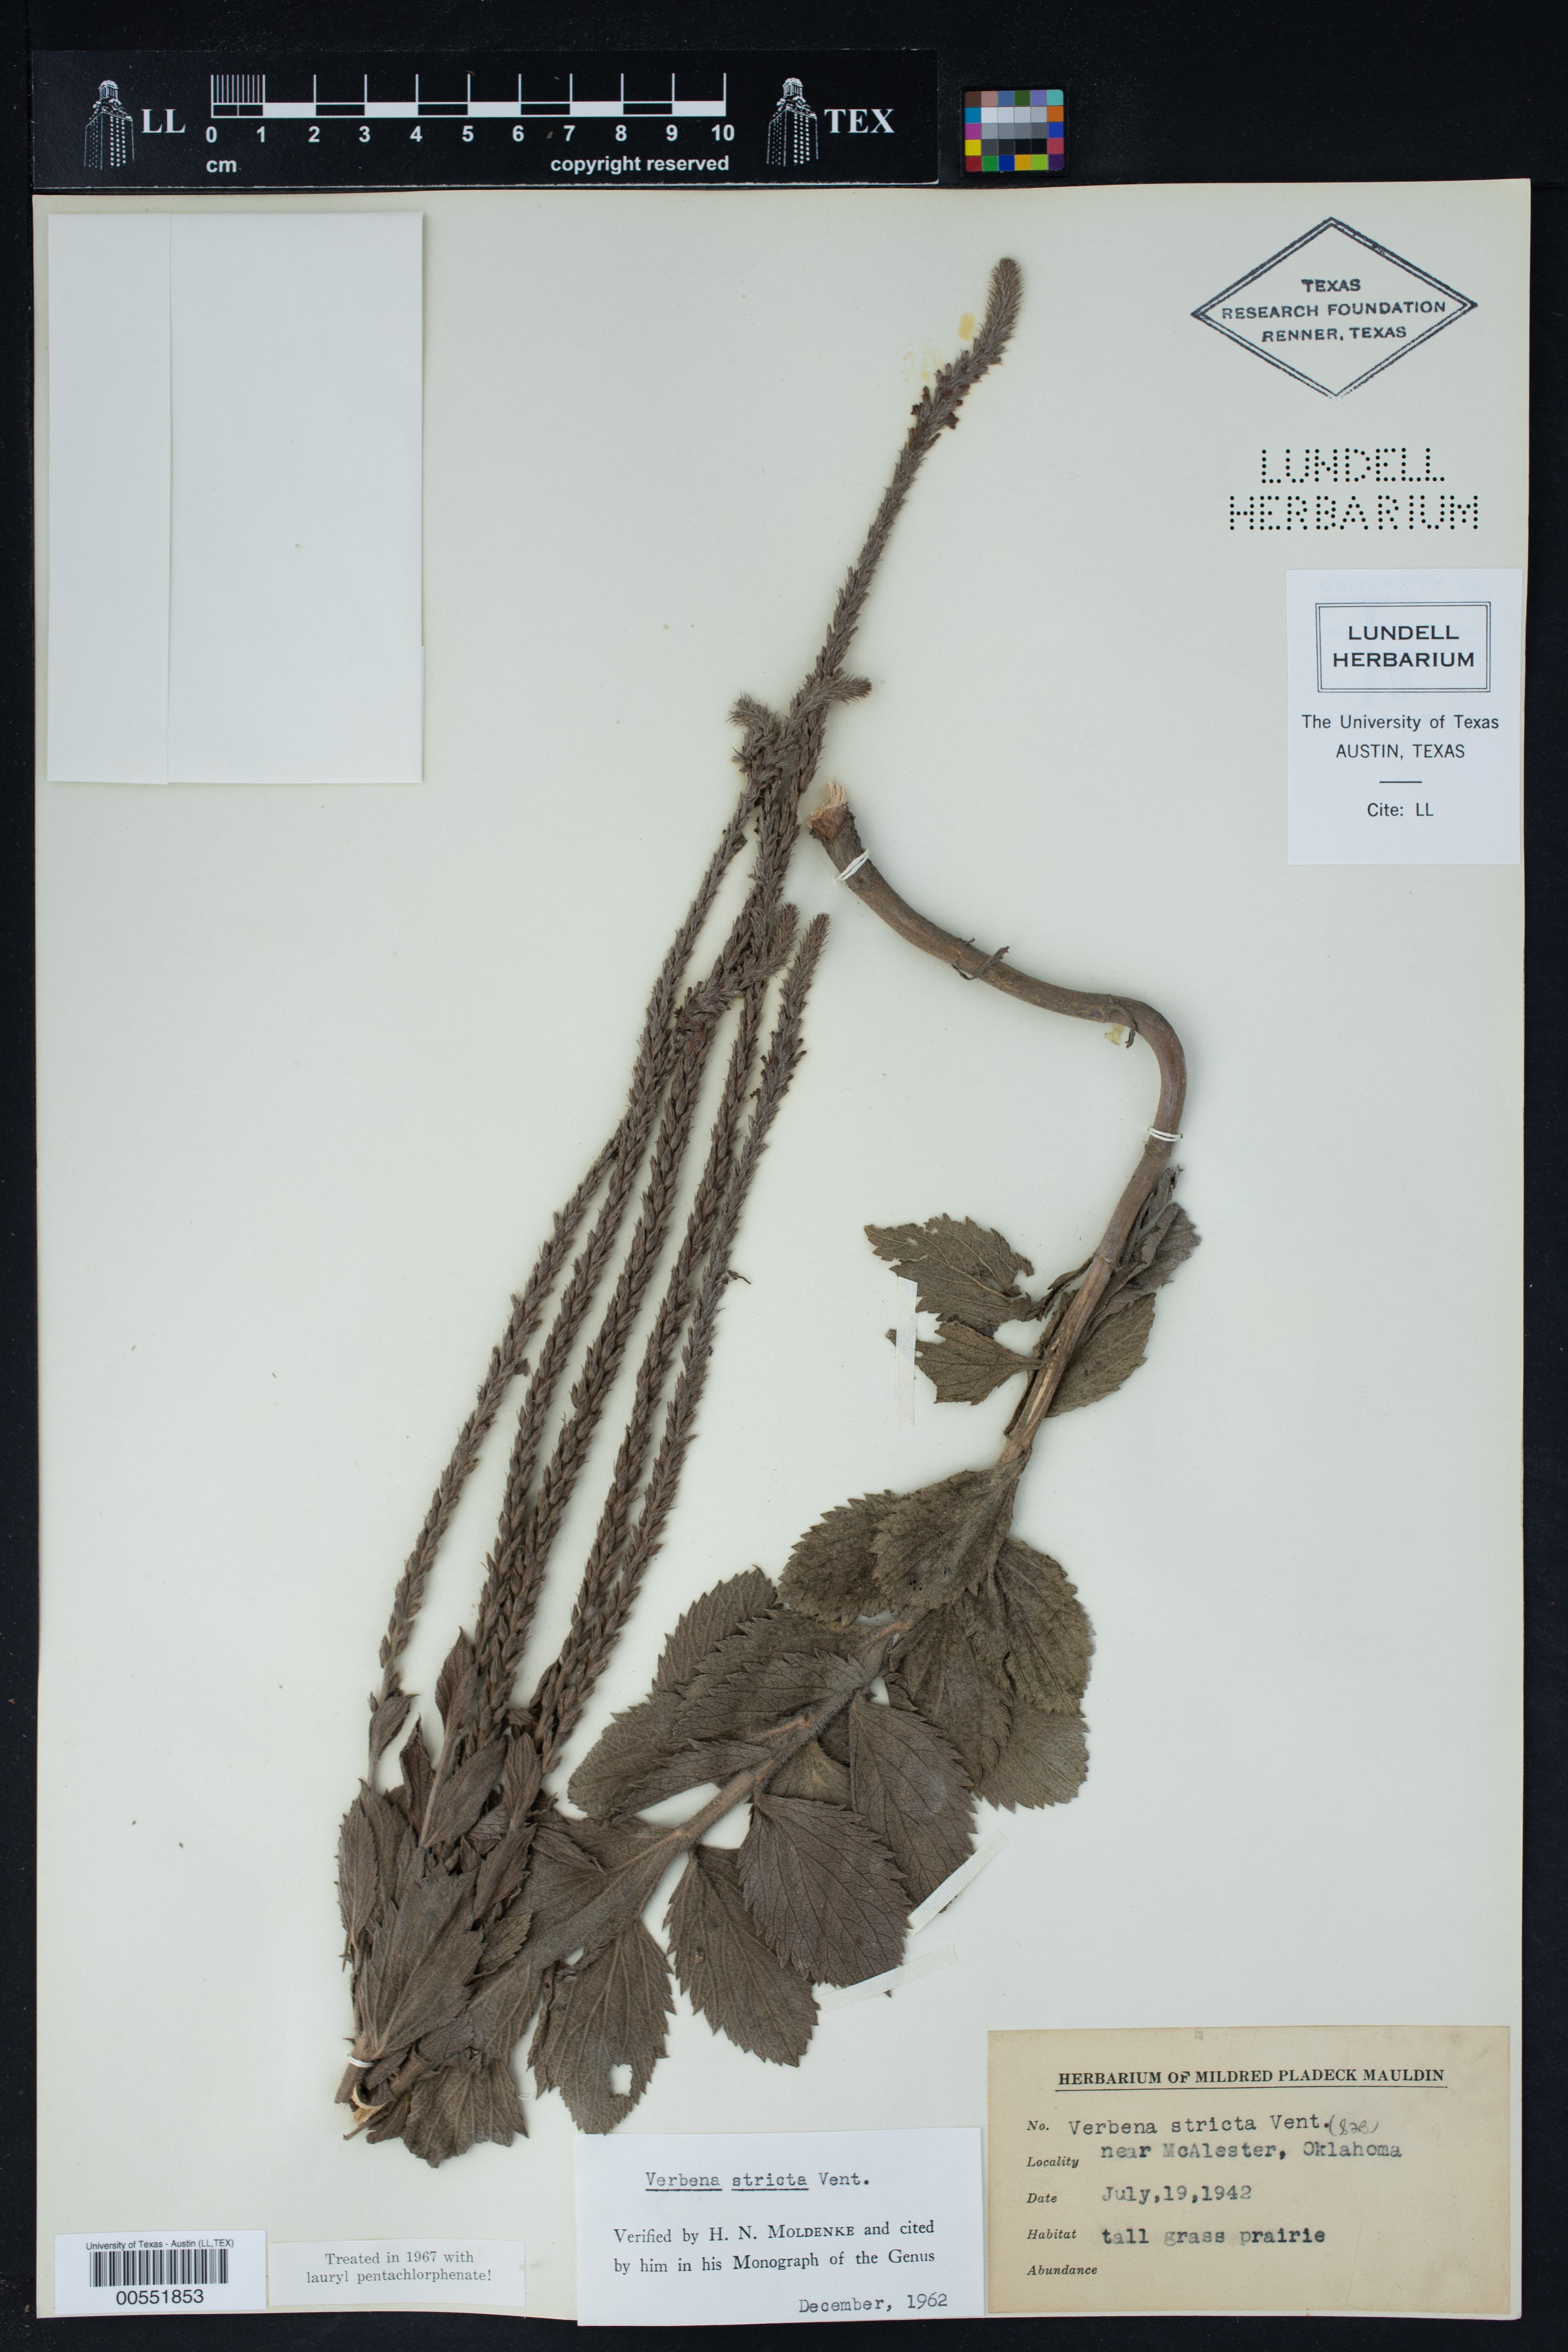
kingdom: Plantae
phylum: Tracheophyta
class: Magnoliopsida
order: Lamiales
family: Verbenaceae
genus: Verbena
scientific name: Verbena stricta
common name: Hoary vervain
